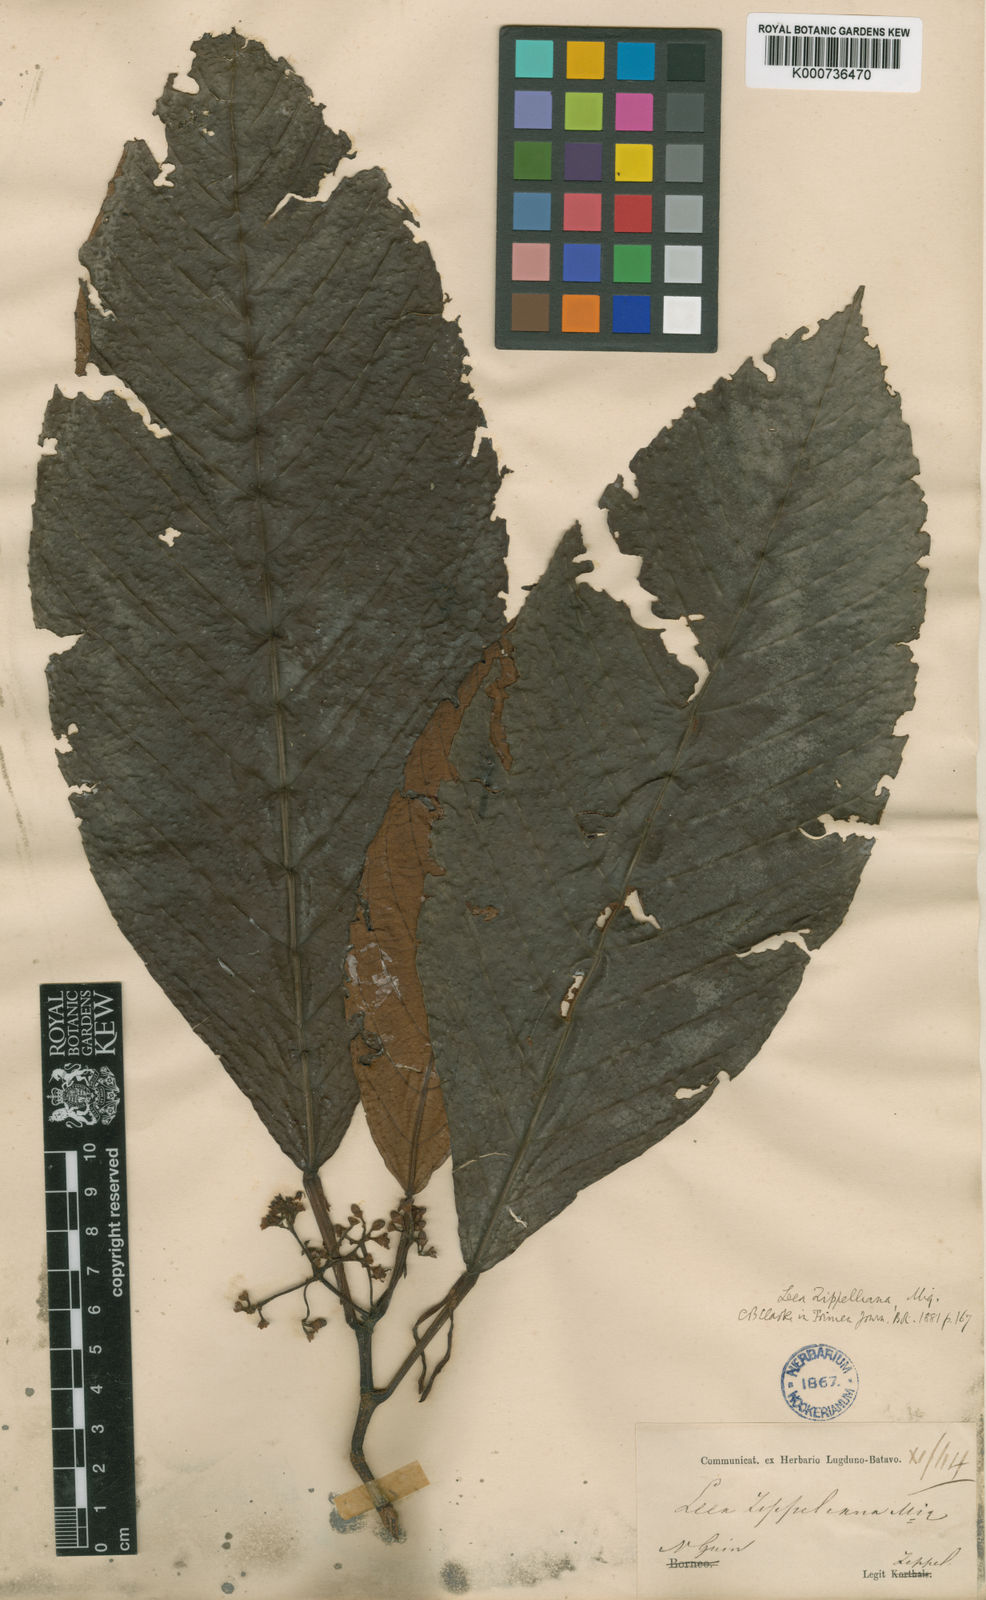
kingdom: Plantae
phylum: Tracheophyta
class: Magnoliopsida
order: Vitales
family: Vitaceae
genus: Leea
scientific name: Leea zippeliana
